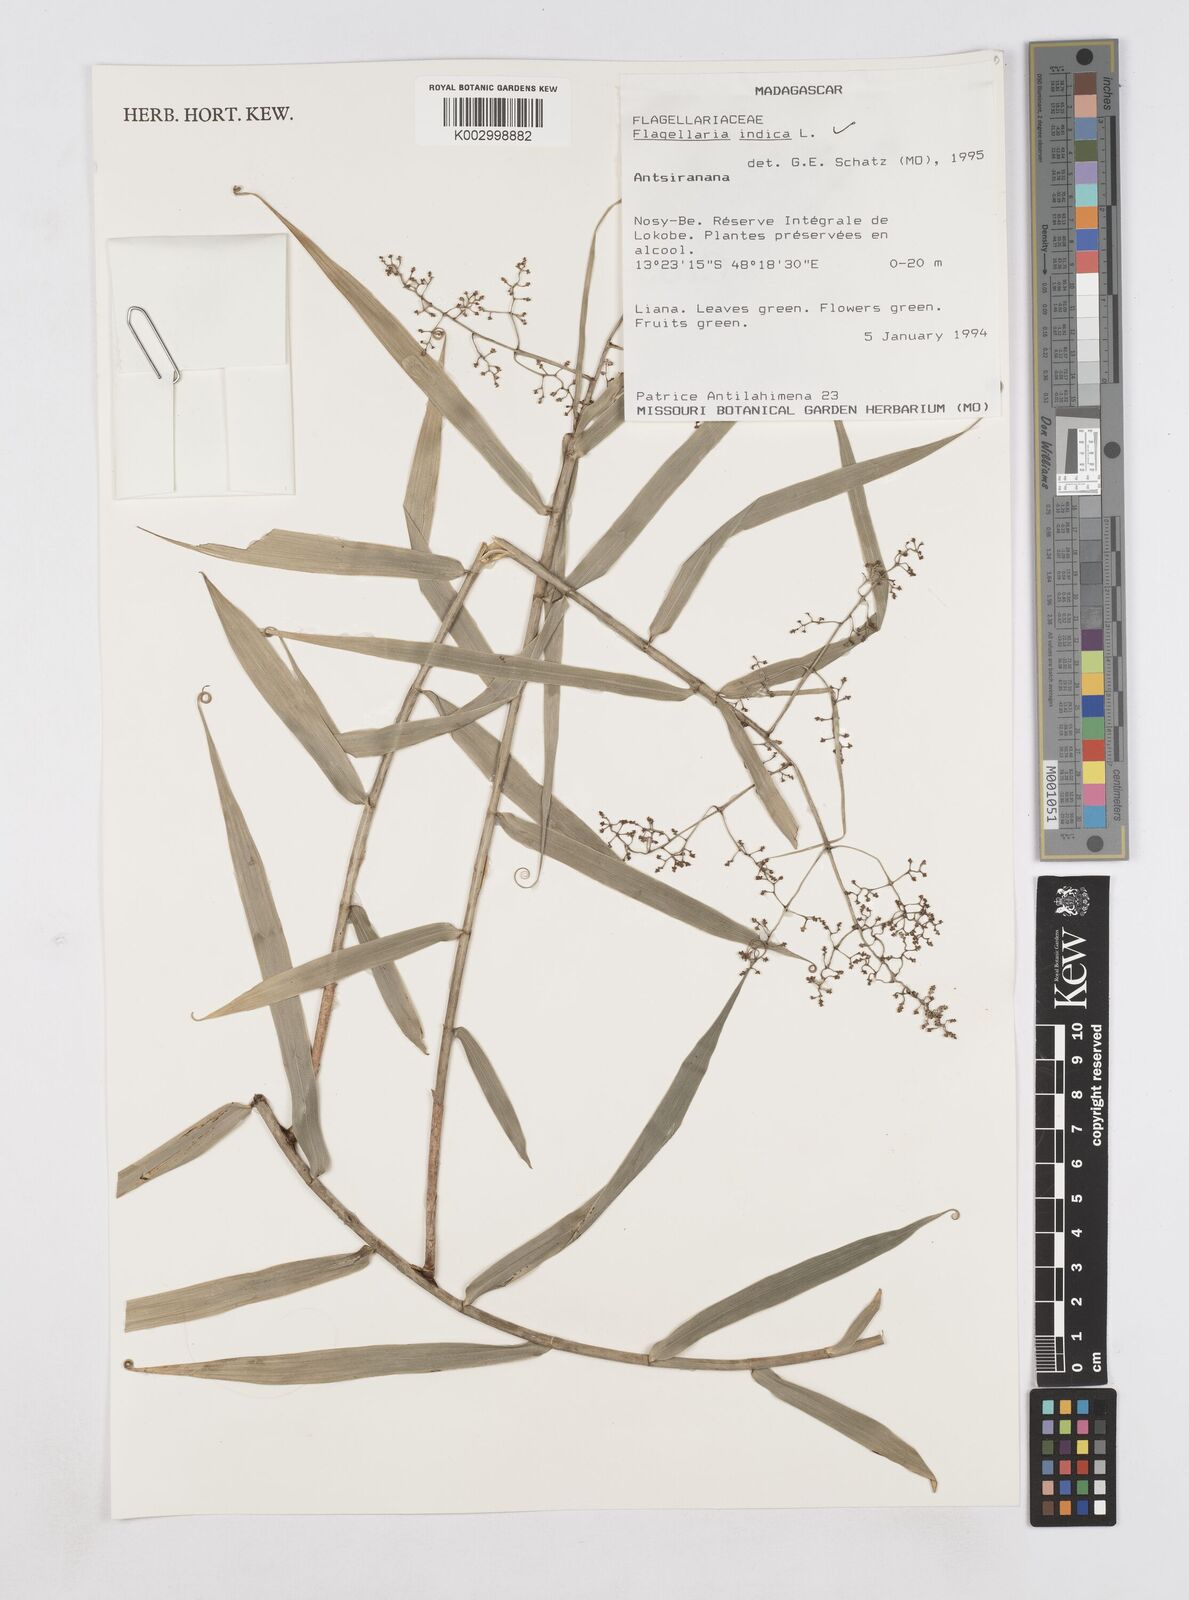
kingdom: Plantae
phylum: Tracheophyta
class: Liliopsida
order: Poales
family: Flagellariaceae
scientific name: Flagellariaceae
